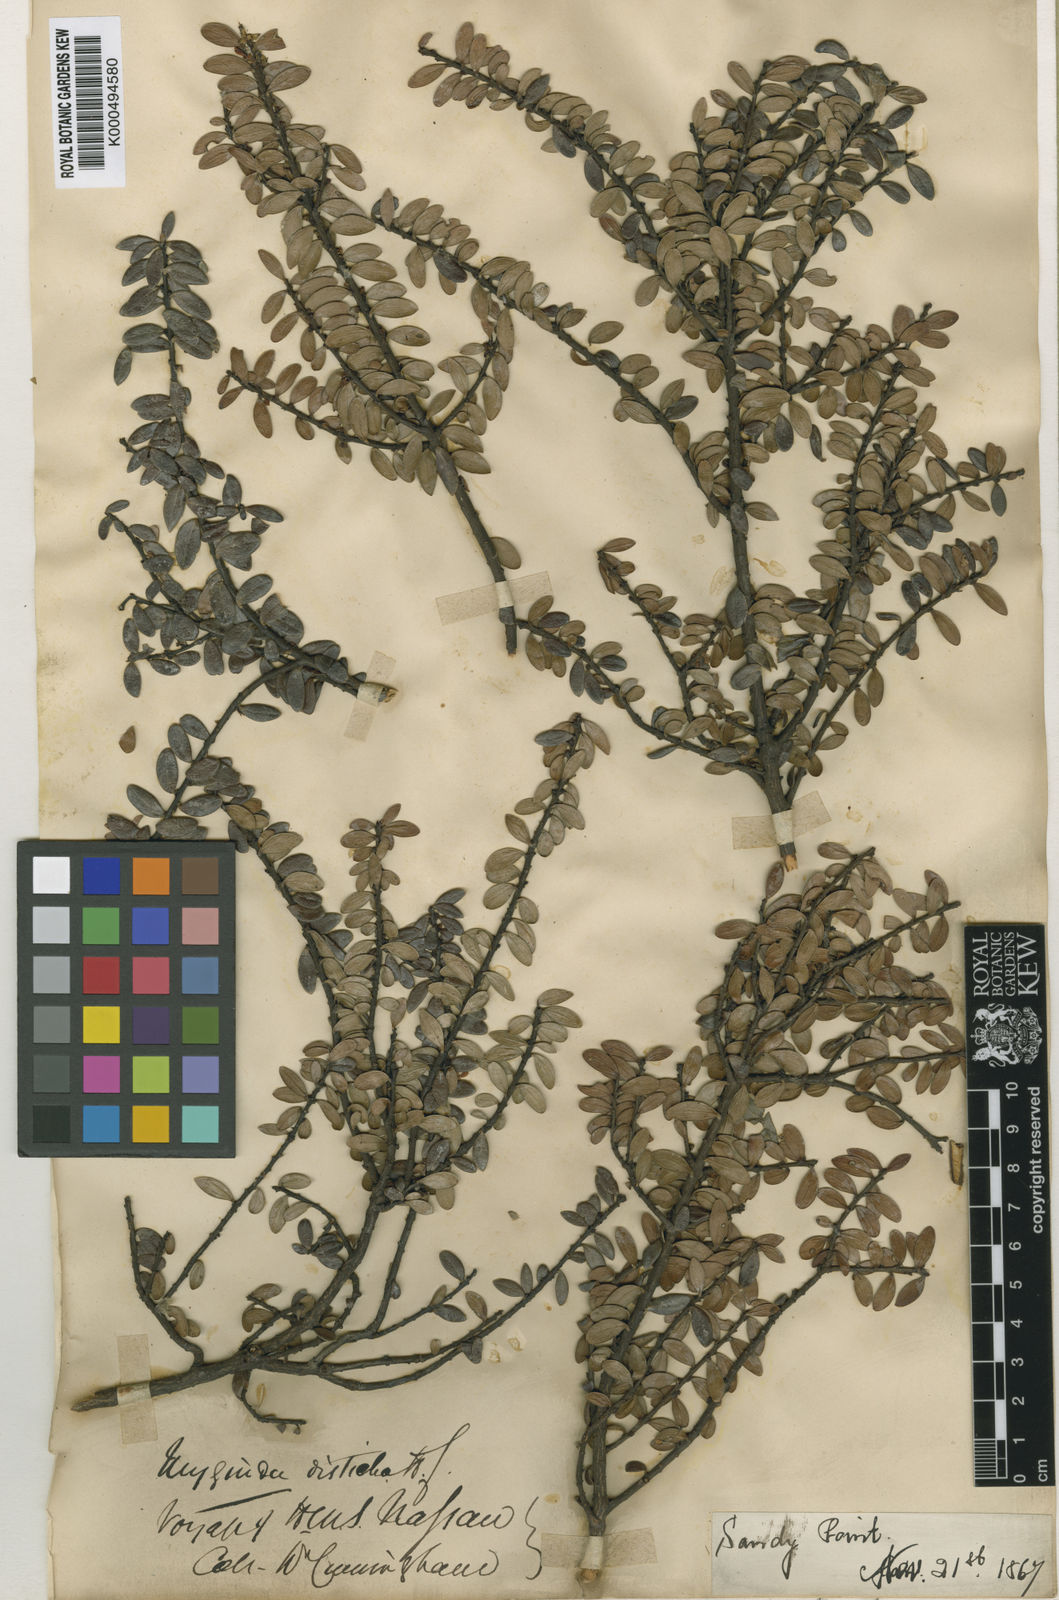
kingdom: Plantae
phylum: Tracheophyta
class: Magnoliopsida
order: Celastrales
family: Celastraceae
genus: Maytenus
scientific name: Maytenus disticha
